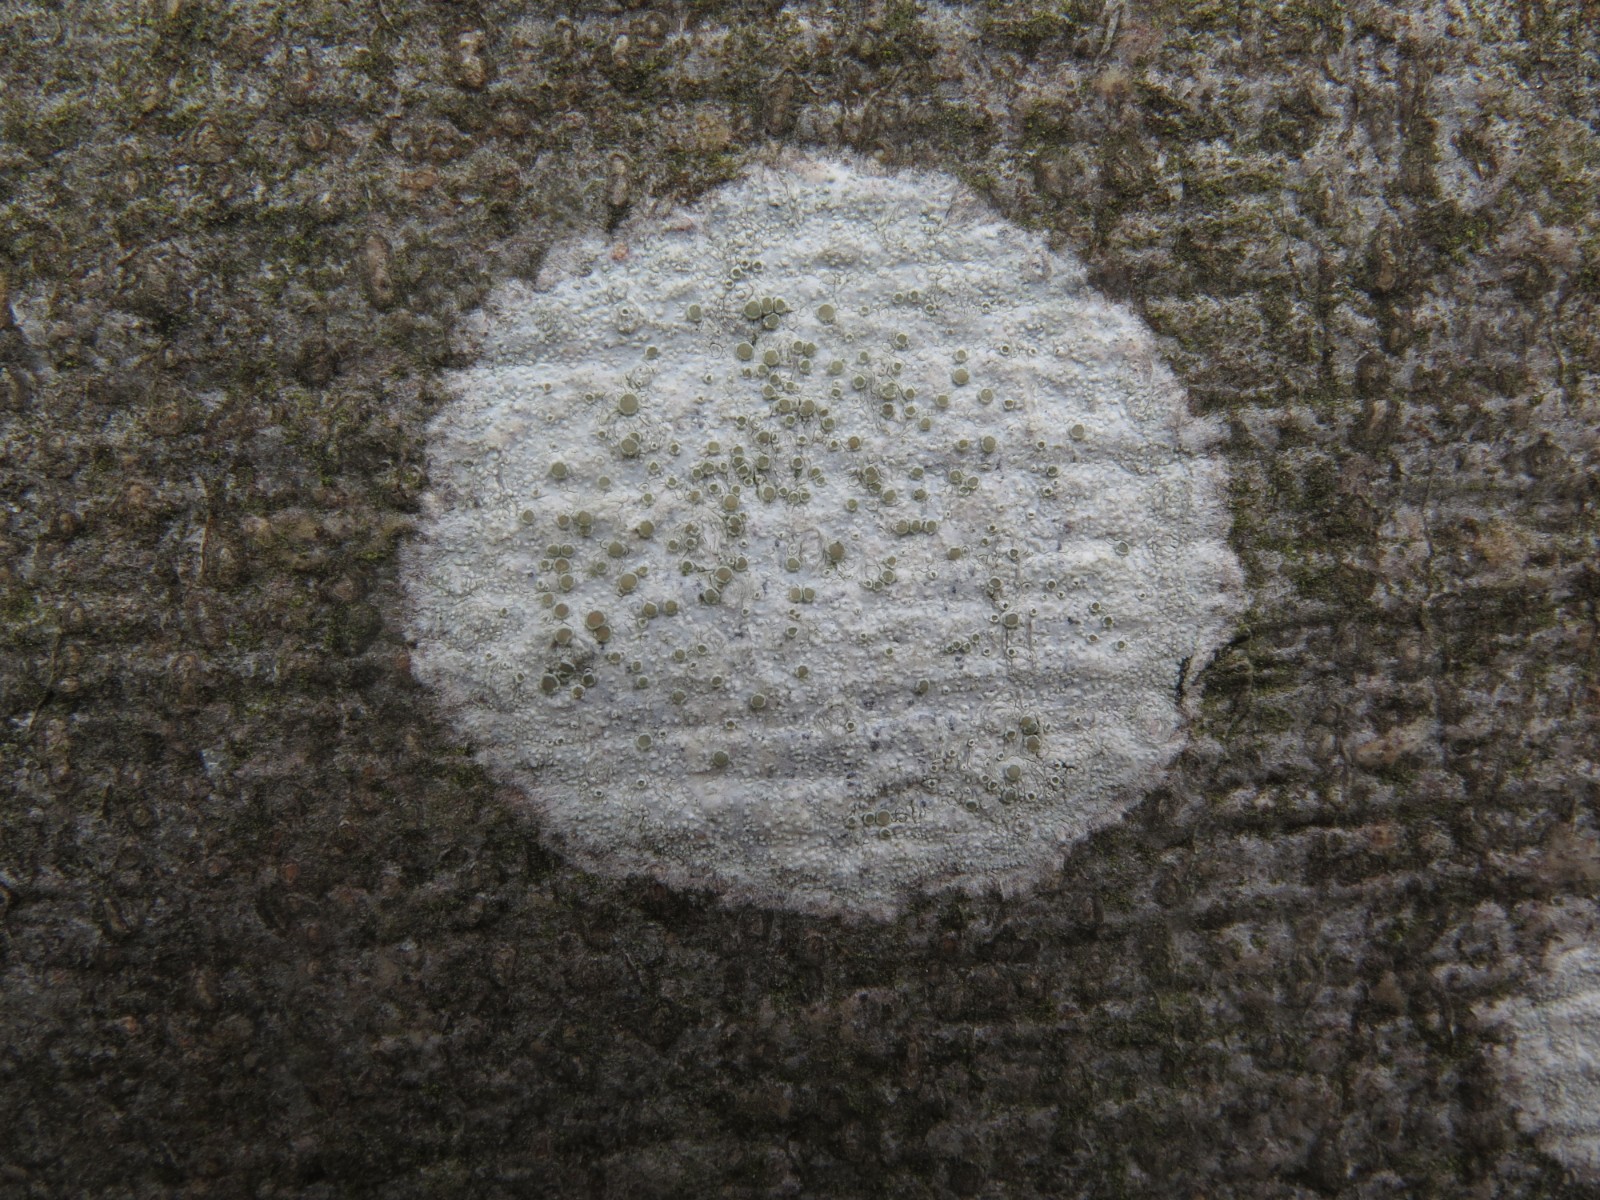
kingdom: Fungi
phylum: Ascomycota
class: Lecanoromycetes
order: Ostropales
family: Phlyctidaceae
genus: Phlyctis
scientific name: Phlyctis argena
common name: almindelig sølvlav
